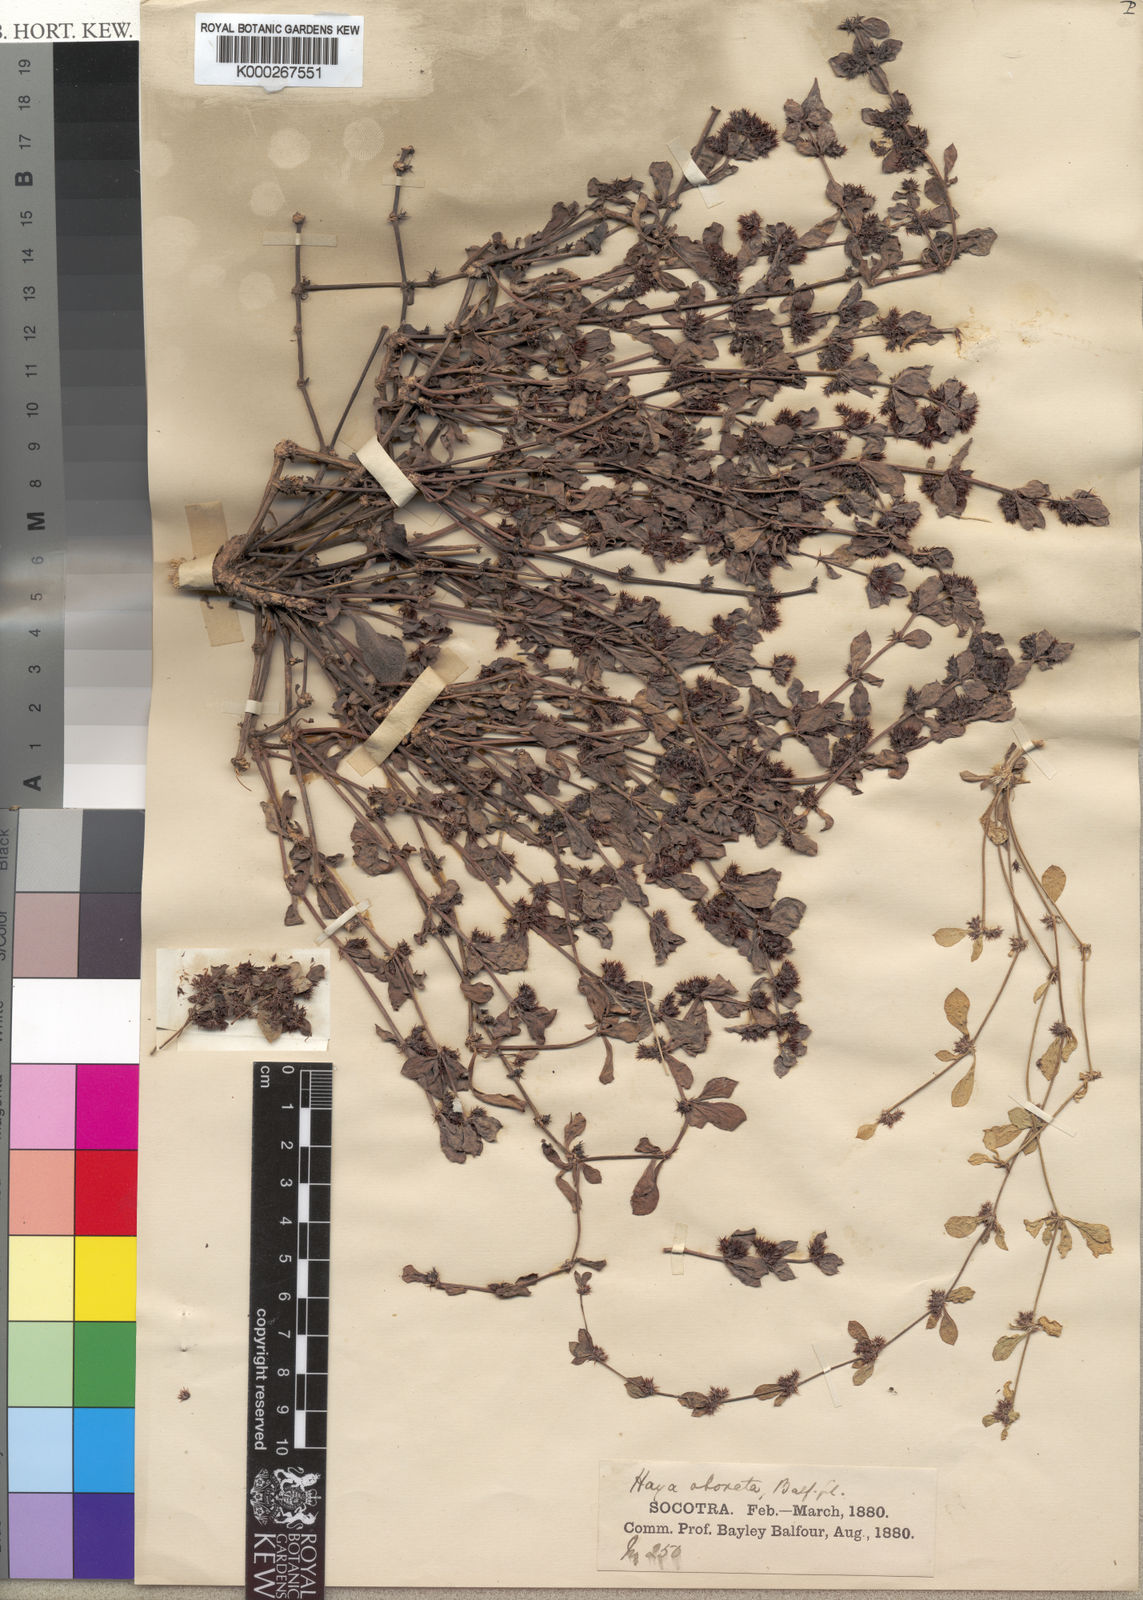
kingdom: Plantae
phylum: Tracheophyta
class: Magnoliopsida
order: Caryophyllales
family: Caryophyllaceae
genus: Haya
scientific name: Haya obovata
